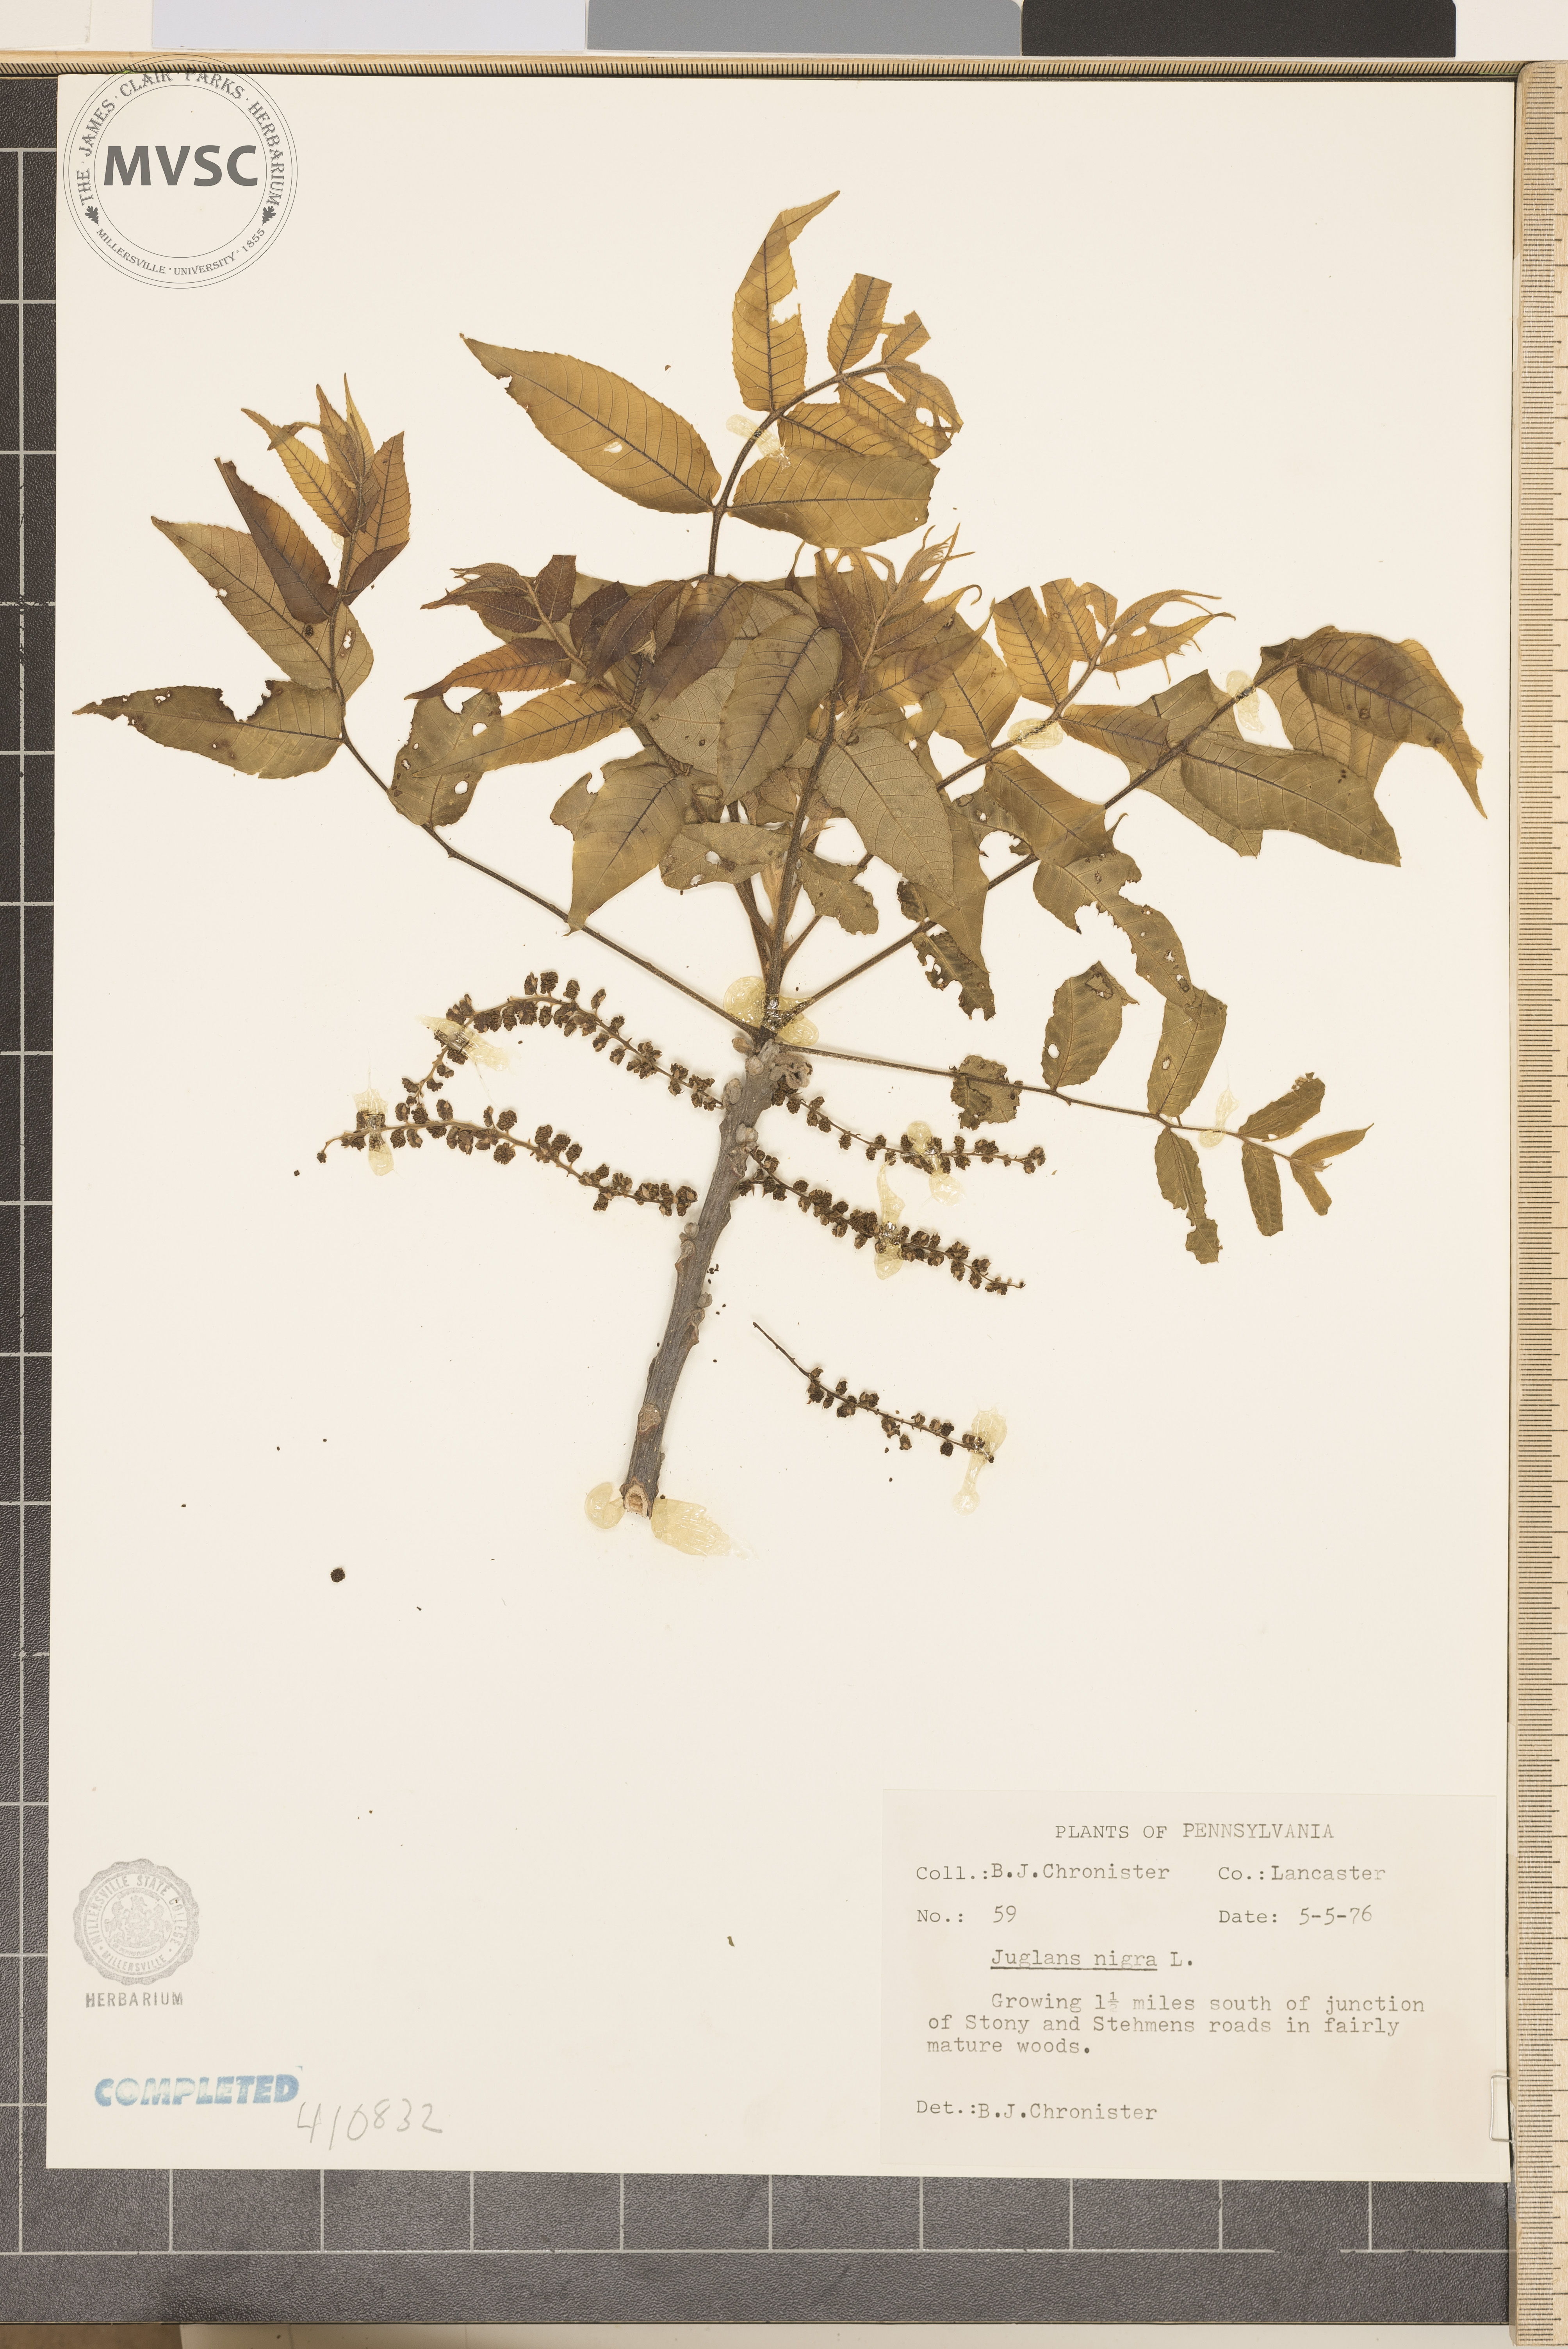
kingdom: Plantae
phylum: Tracheophyta
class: Magnoliopsida
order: Fagales
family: Juglandaceae
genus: Juglans
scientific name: Juglans nigra
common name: Black walnut
